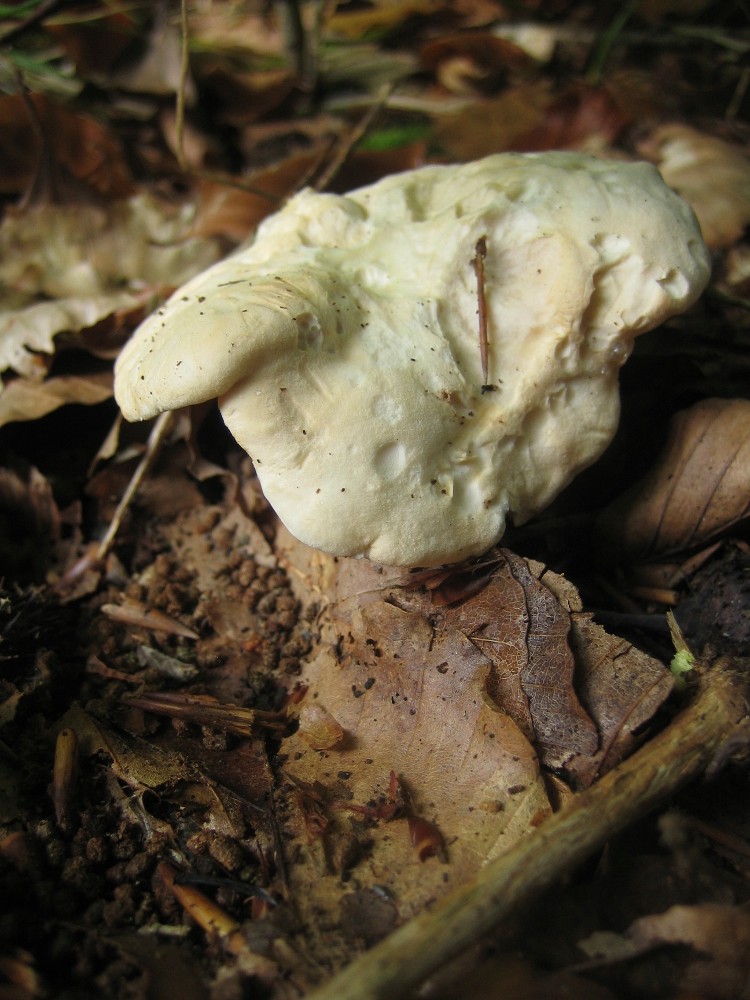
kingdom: Fungi
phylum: Basidiomycota
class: Agaricomycetes
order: Cantharellales
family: Hydnaceae
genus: Hydnum
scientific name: Hydnum repandum
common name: almindelig pigsvamp
